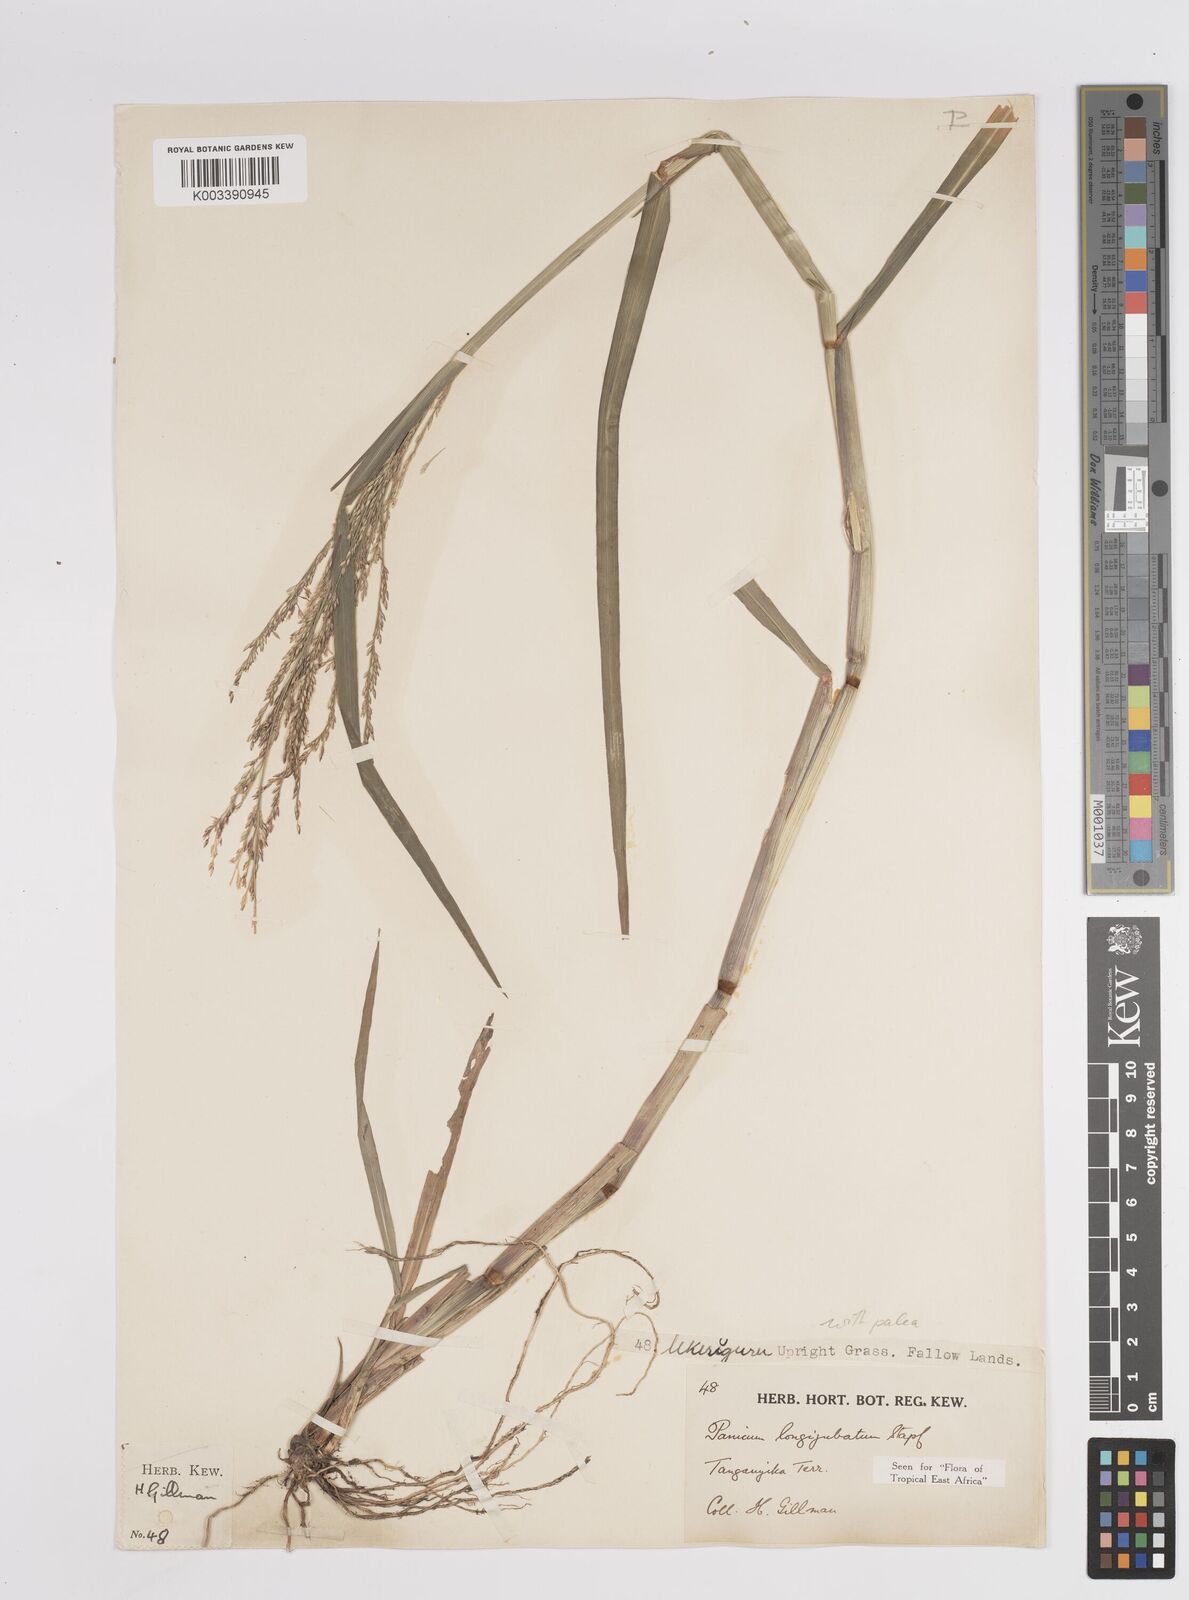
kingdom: Plantae
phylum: Tracheophyta
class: Liliopsida
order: Poales
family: Poaceae
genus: Panicum
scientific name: Panicum subalbidum
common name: Elbow buffalo grass
